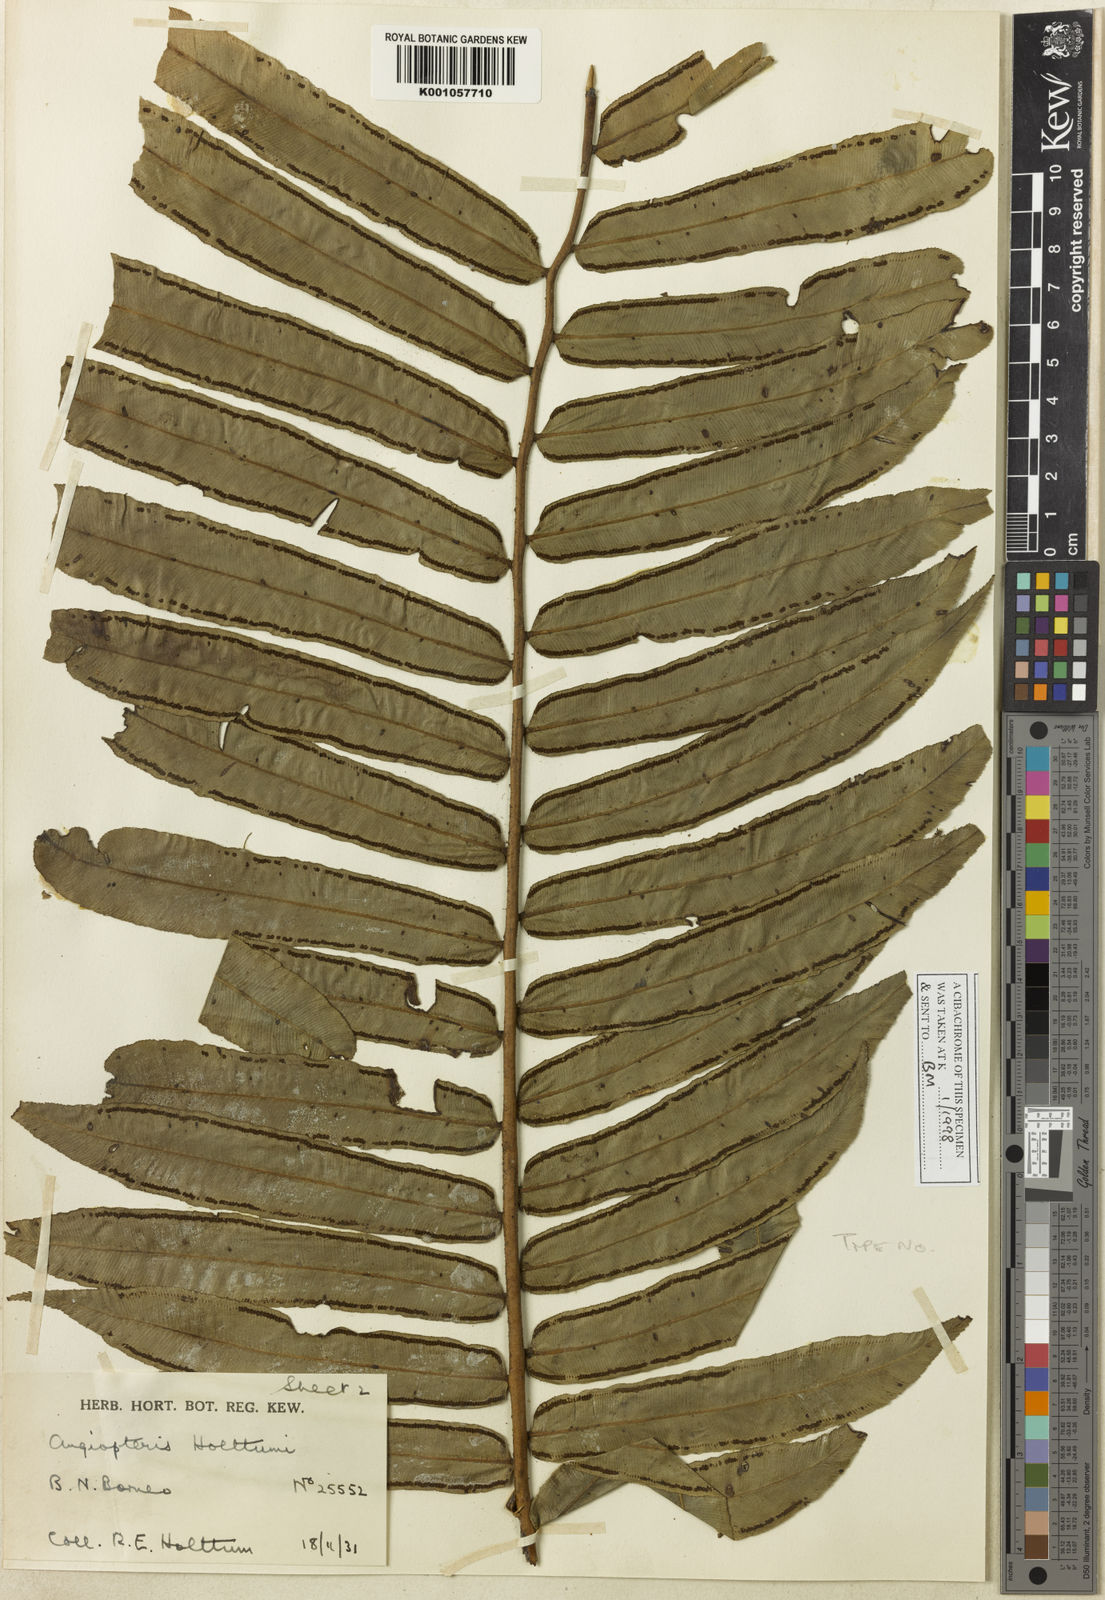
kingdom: Plantae
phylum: Tracheophyta
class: Polypodiopsida
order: Marattiales
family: Marattiaceae
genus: Angiopteris
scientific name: Angiopteris holttumii
